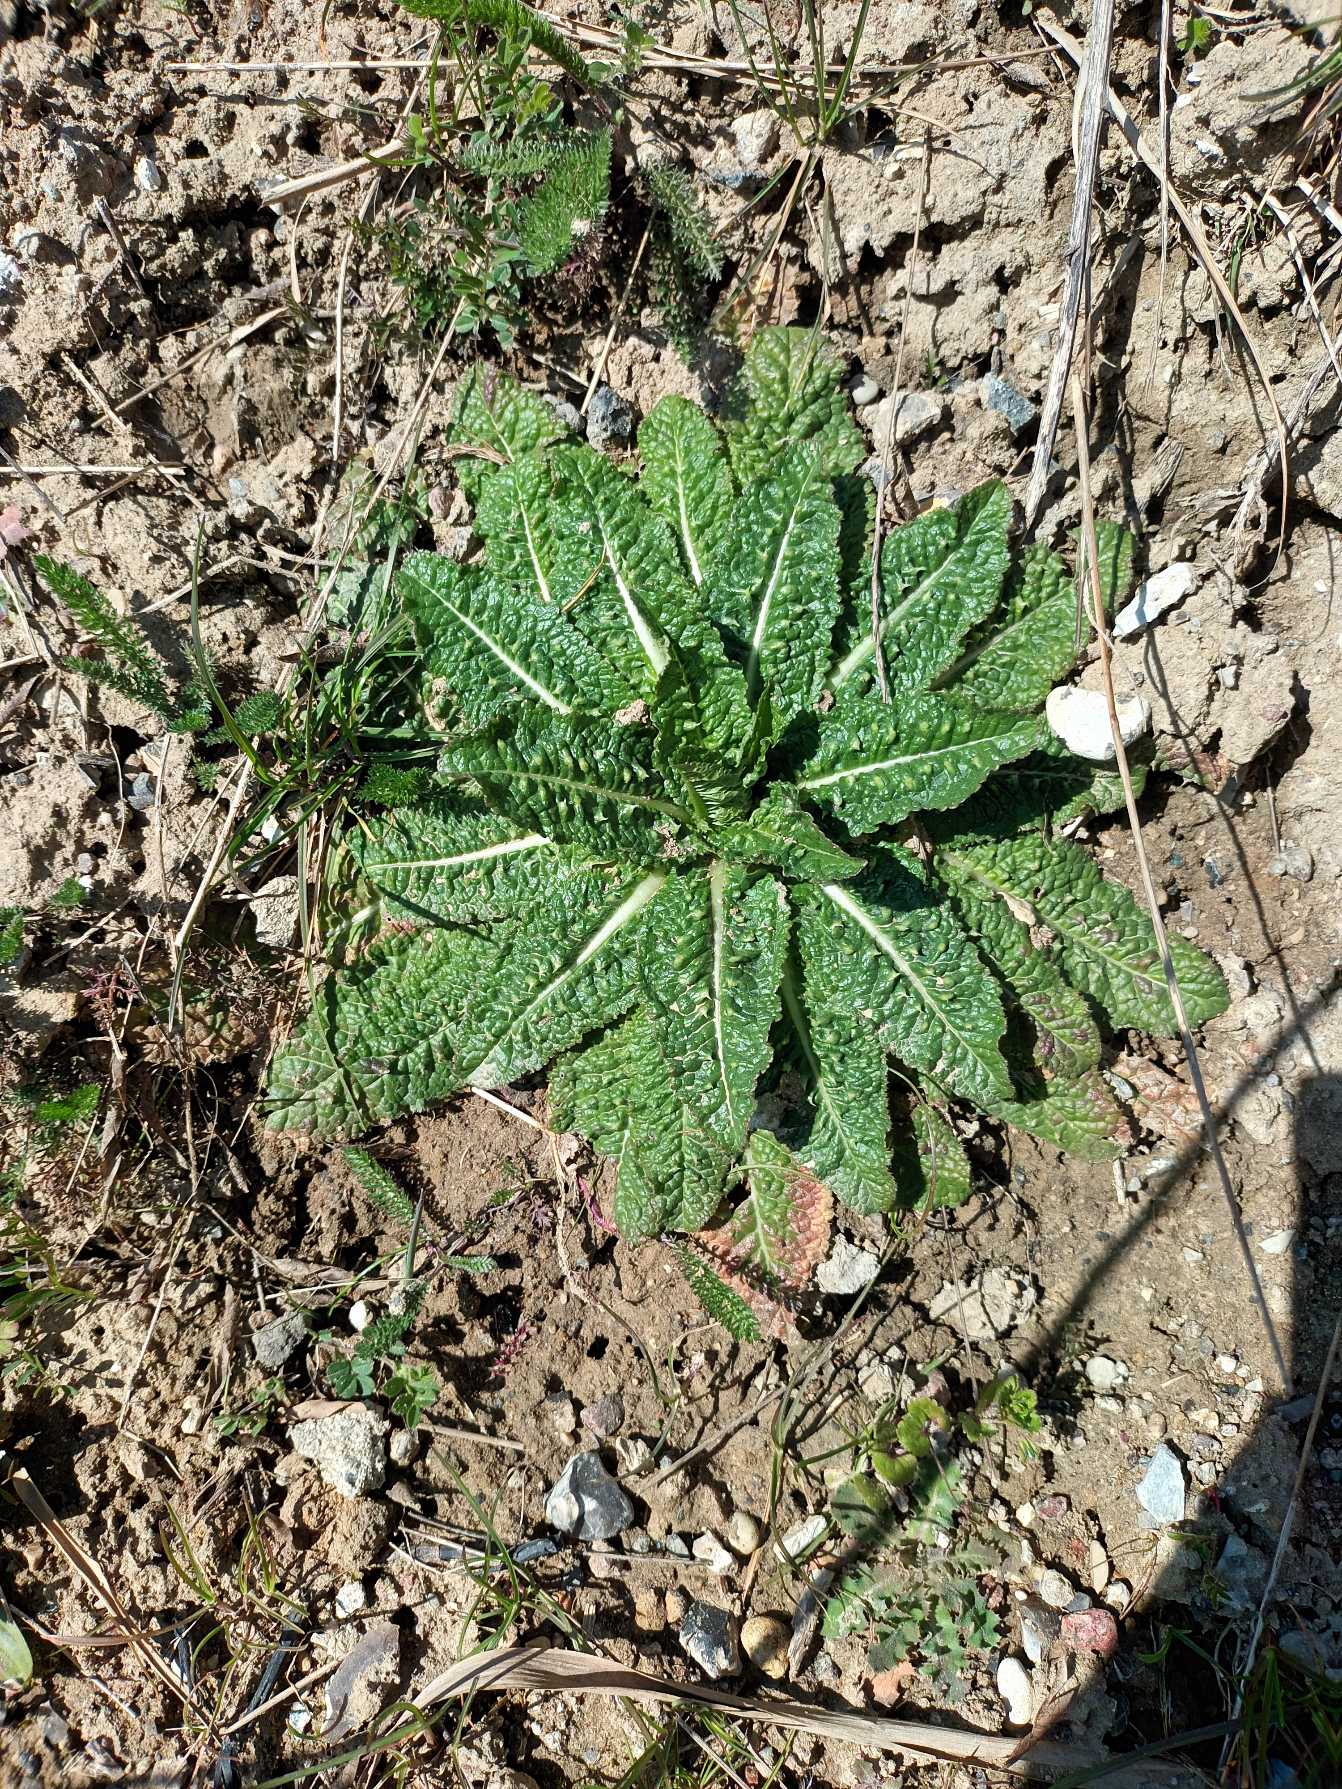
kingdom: Plantae
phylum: Tracheophyta
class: Magnoliopsida
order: Dipsacales
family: Caprifoliaceae
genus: Dipsacus
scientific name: Dipsacus fullonum
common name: Gærde-kartebolle
